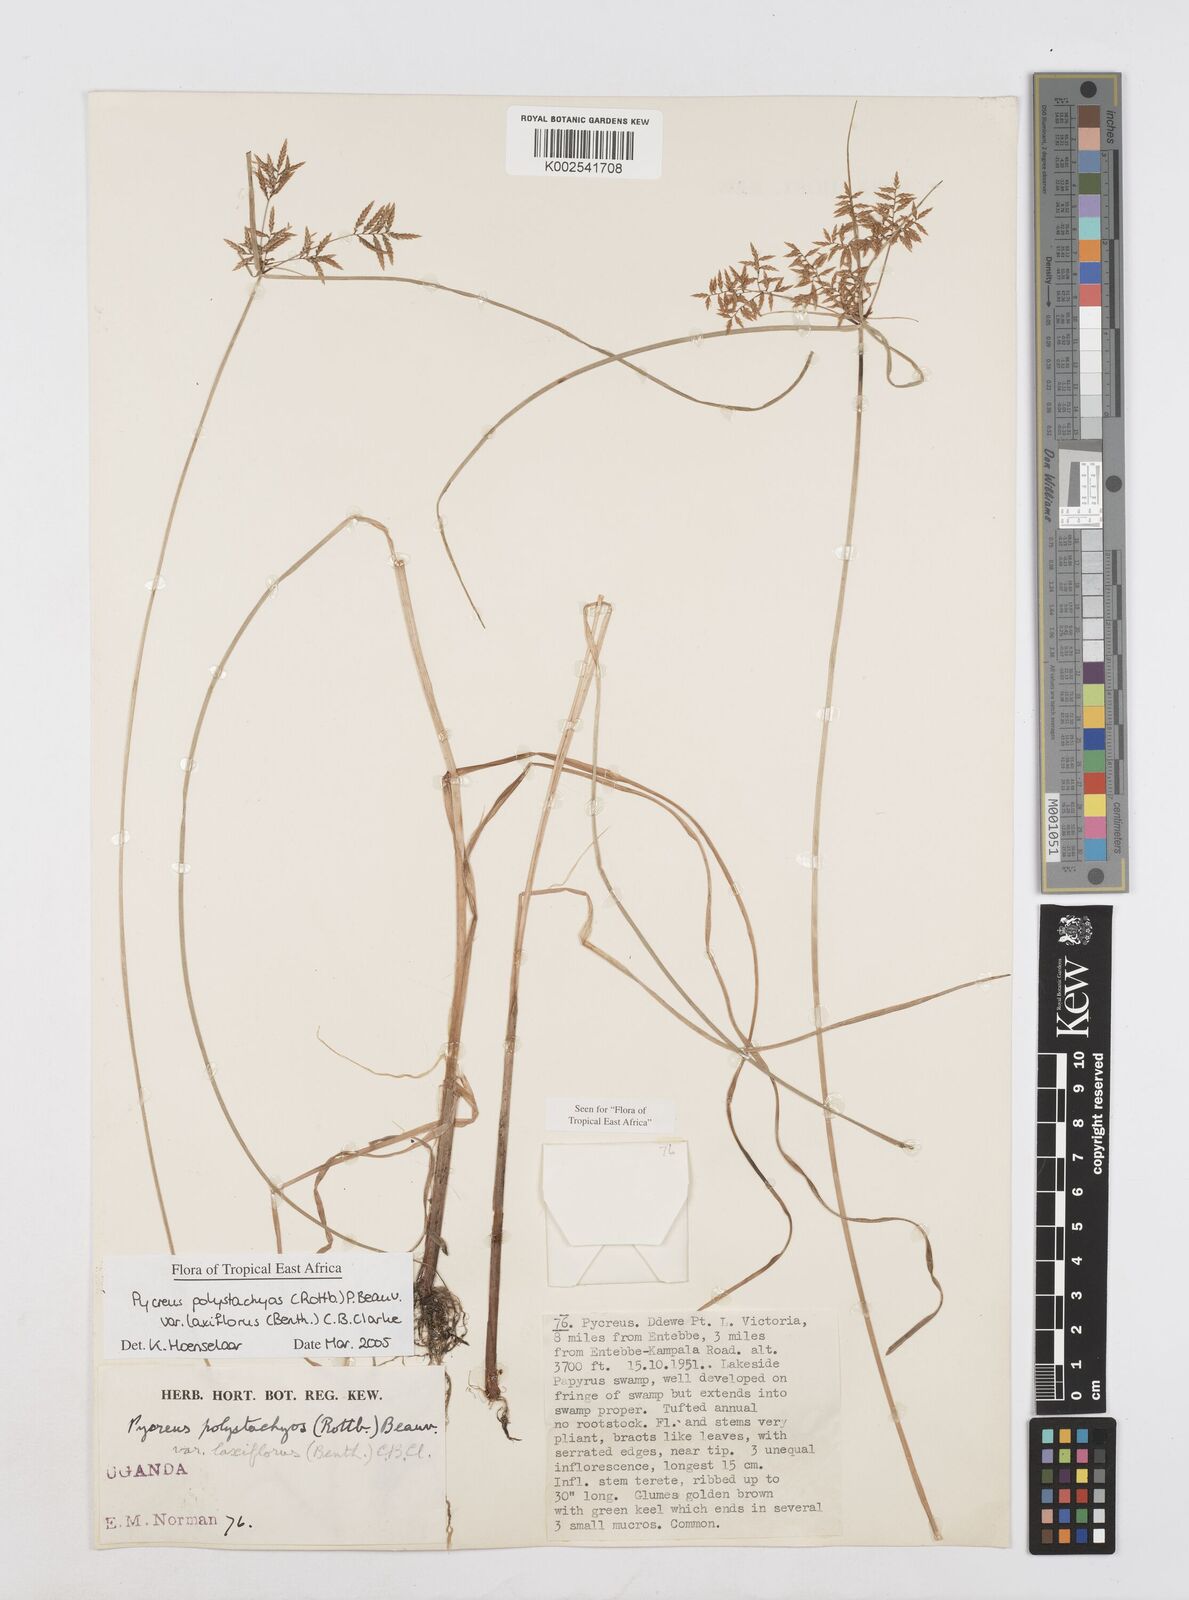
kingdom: Plantae
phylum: Tracheophyta
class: Liliopsida
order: Poales
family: Cyperaceae
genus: Cyperus
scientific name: Cyperus polystachyos
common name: Bunchy flat sedge
